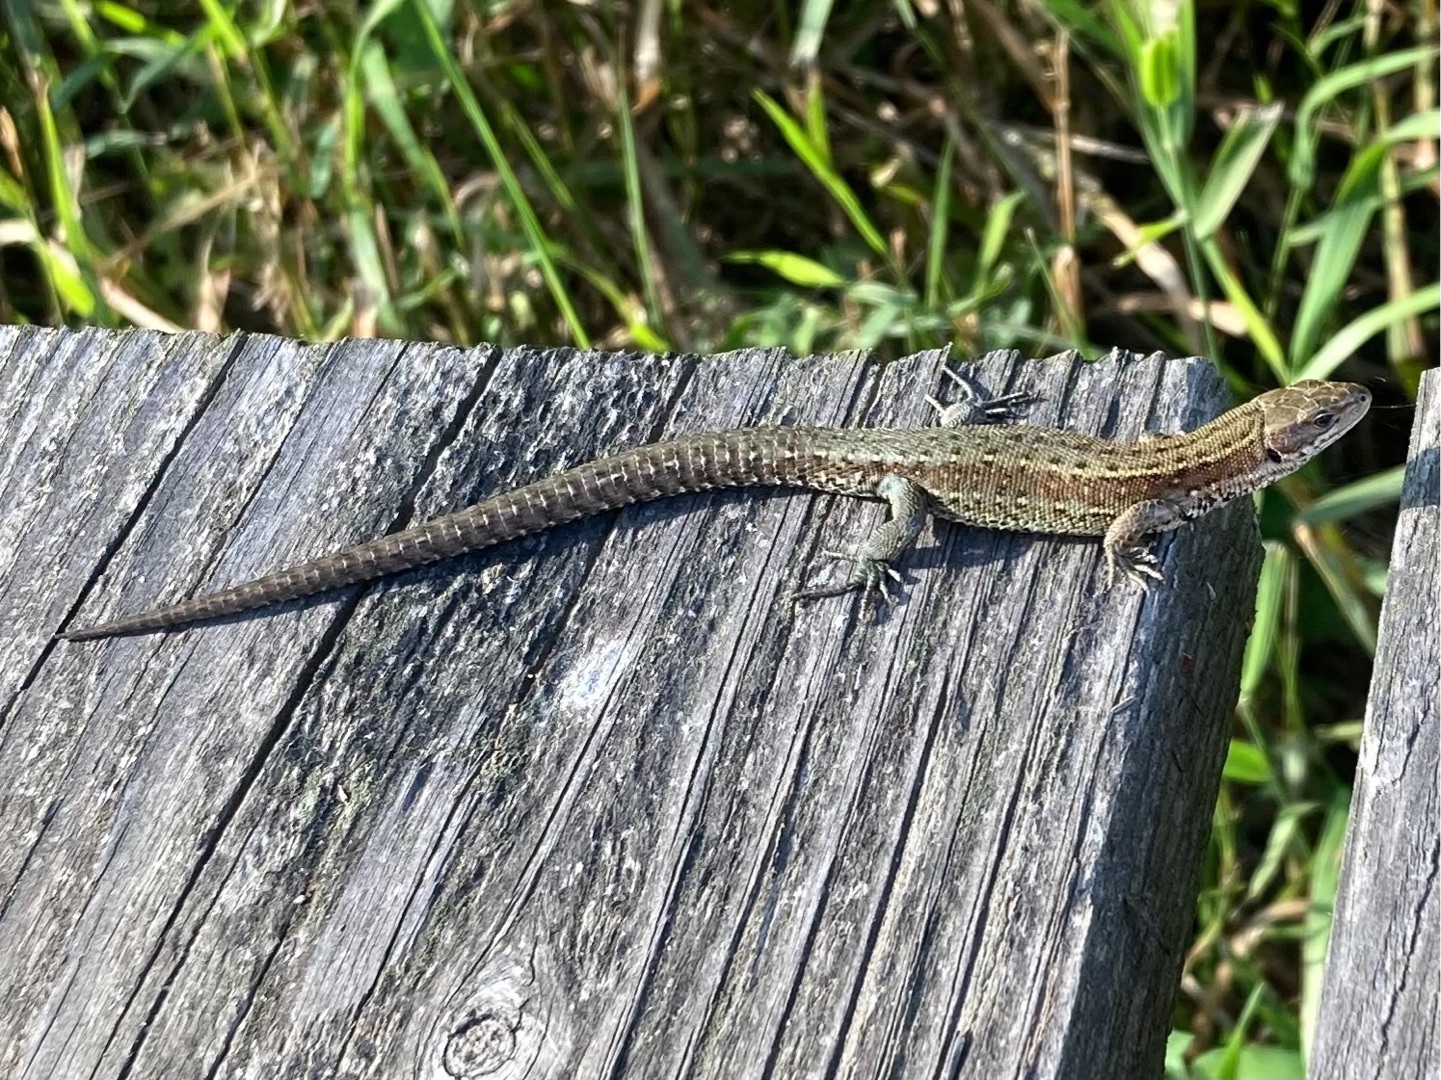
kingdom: Animalia
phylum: Chordata
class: Squamata
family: Lacertidae
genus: Zootoca
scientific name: Zootoca vivipara
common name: Skovfirben
